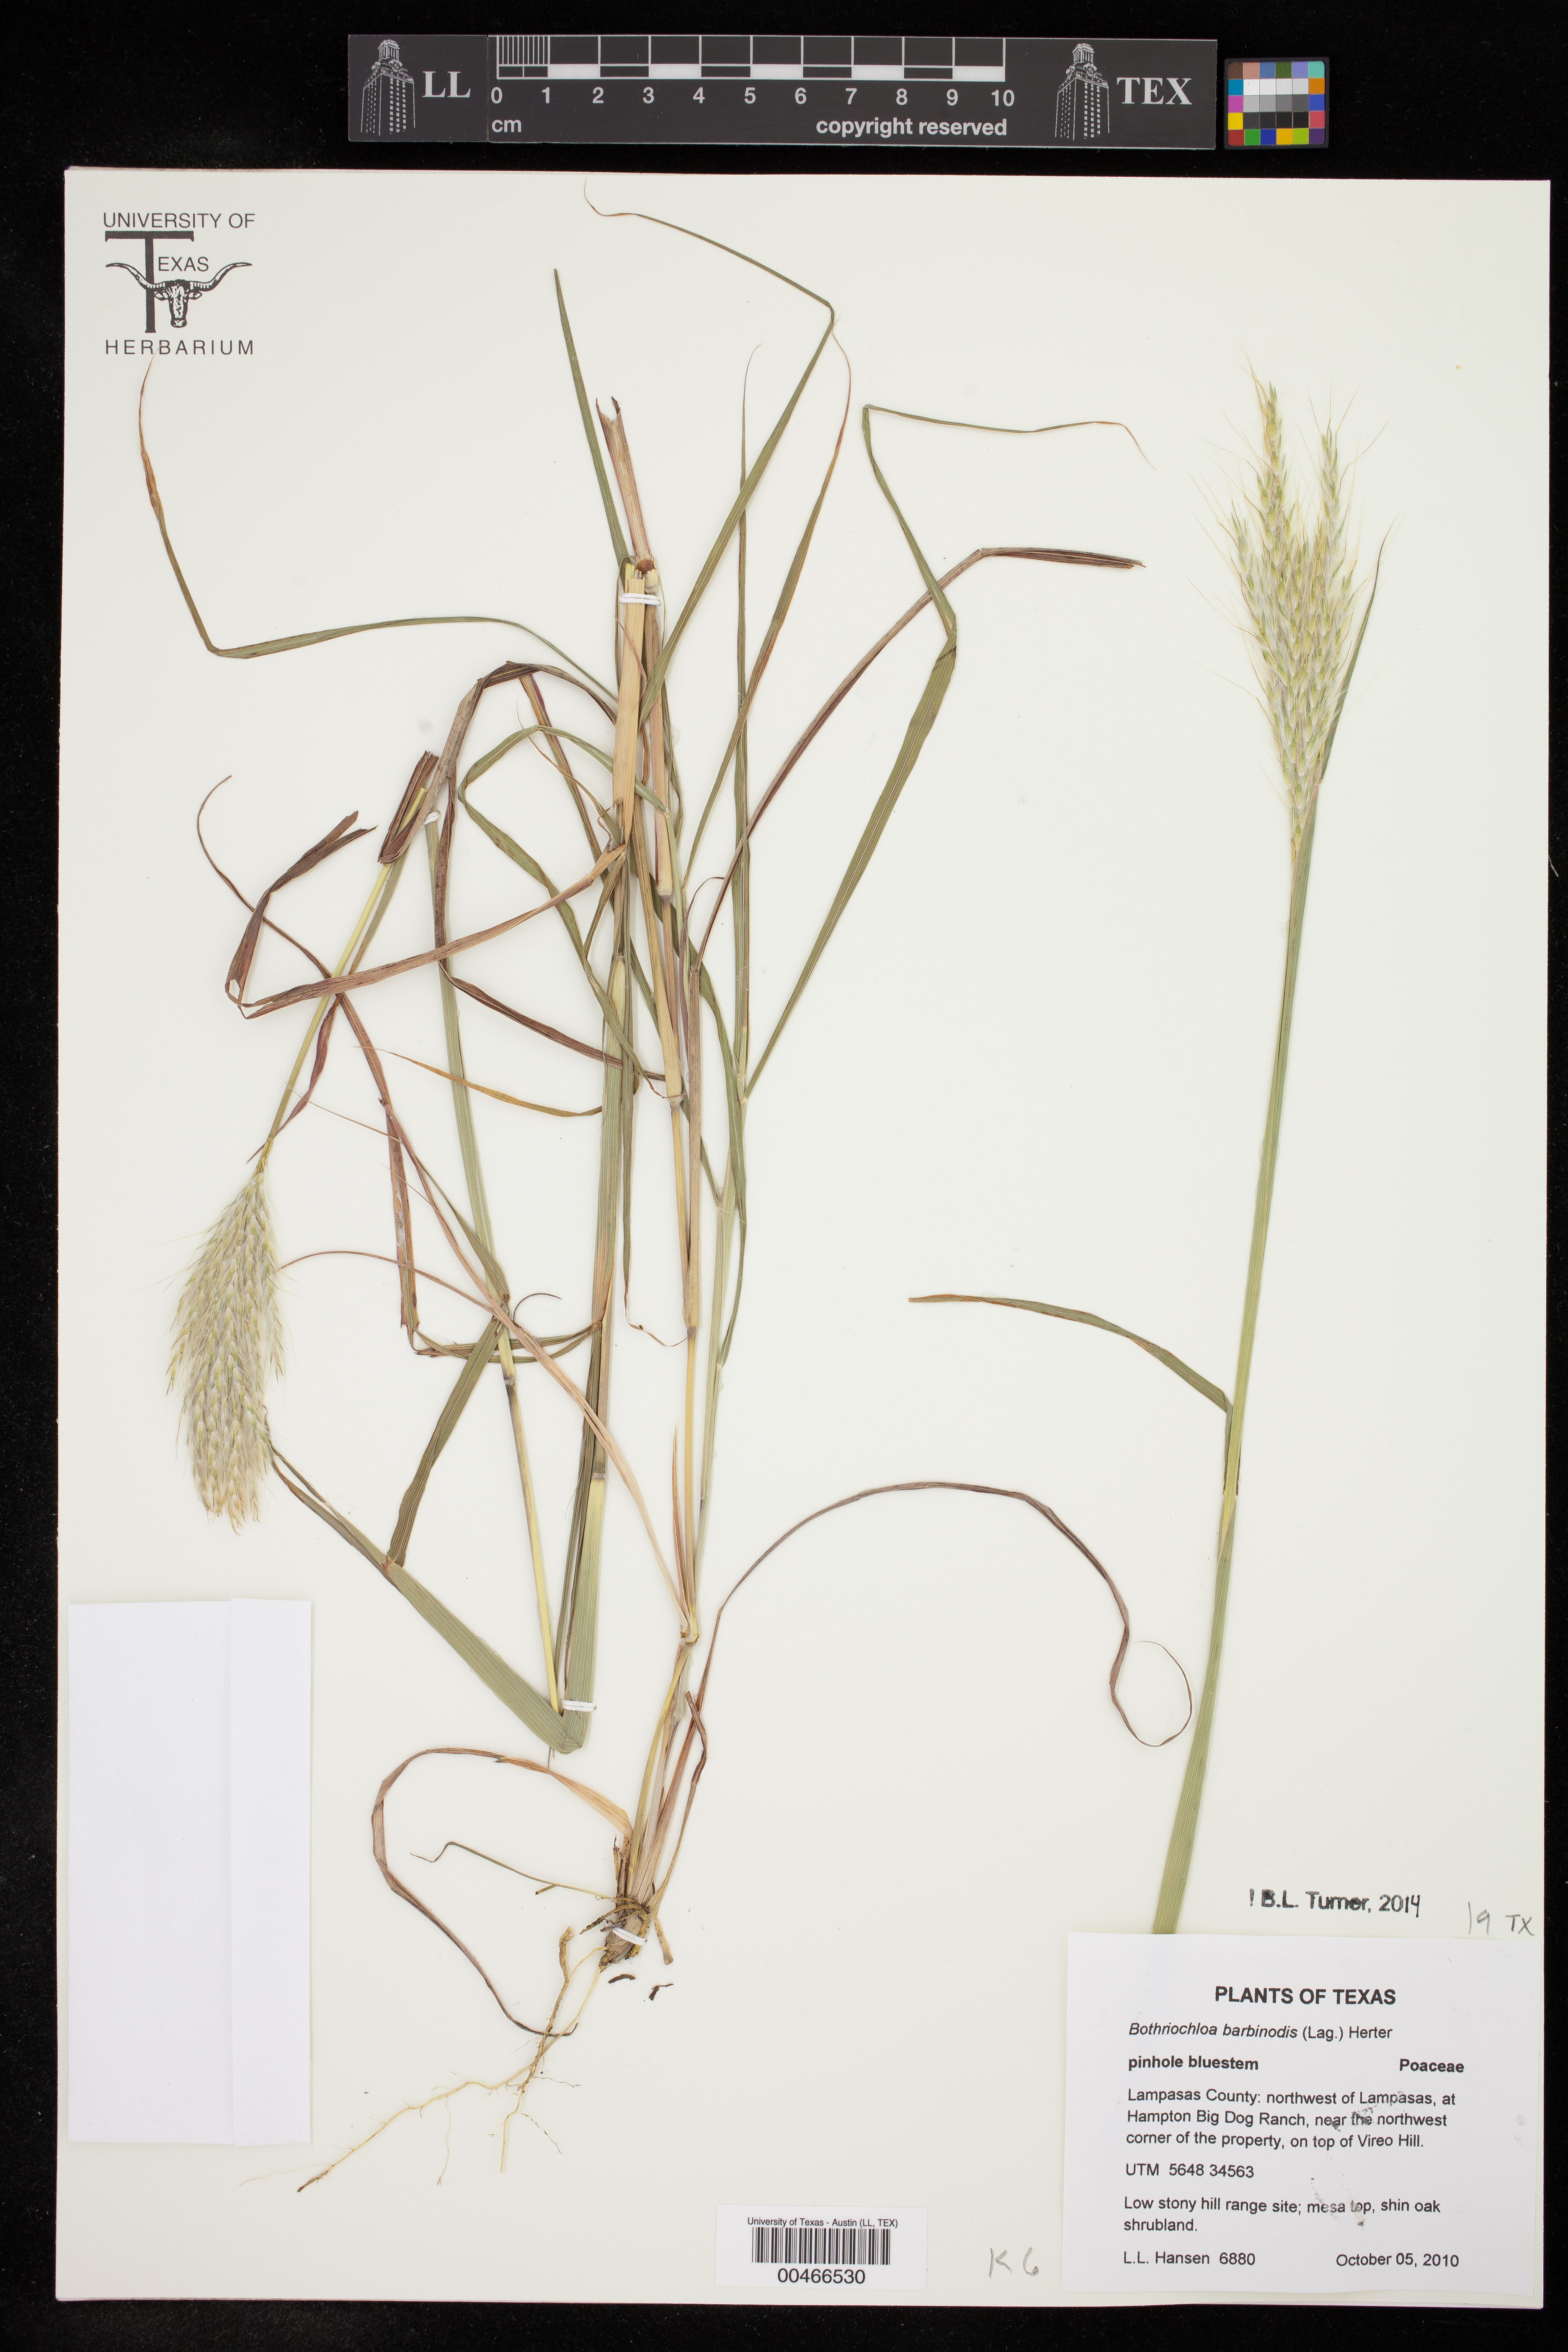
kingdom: Plantae
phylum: Tracheophyta
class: Liliopsida
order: Poales
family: Poaceae
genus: Bothriochloa
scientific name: Bothriochloa barbinodis
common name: Cane bluestem
